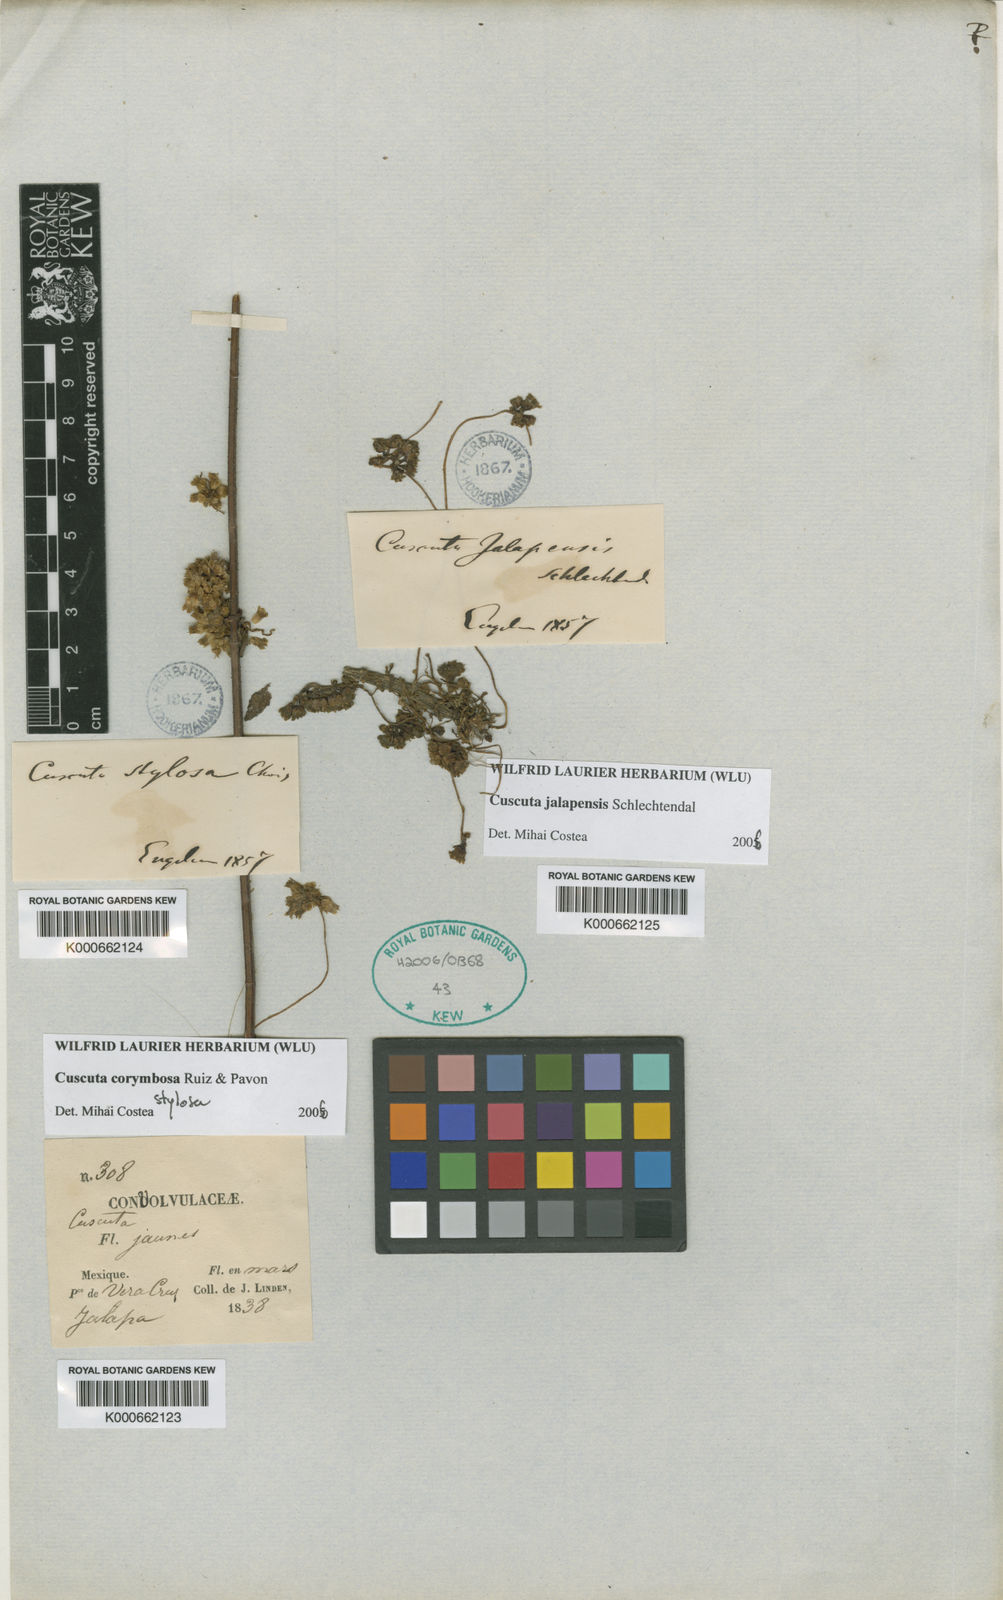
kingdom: Plantae
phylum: Tracheophyta
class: Magnoliopsida
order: Solanales
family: Convolvulaceae
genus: Cuscuta
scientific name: Cuscuta corymbosa
